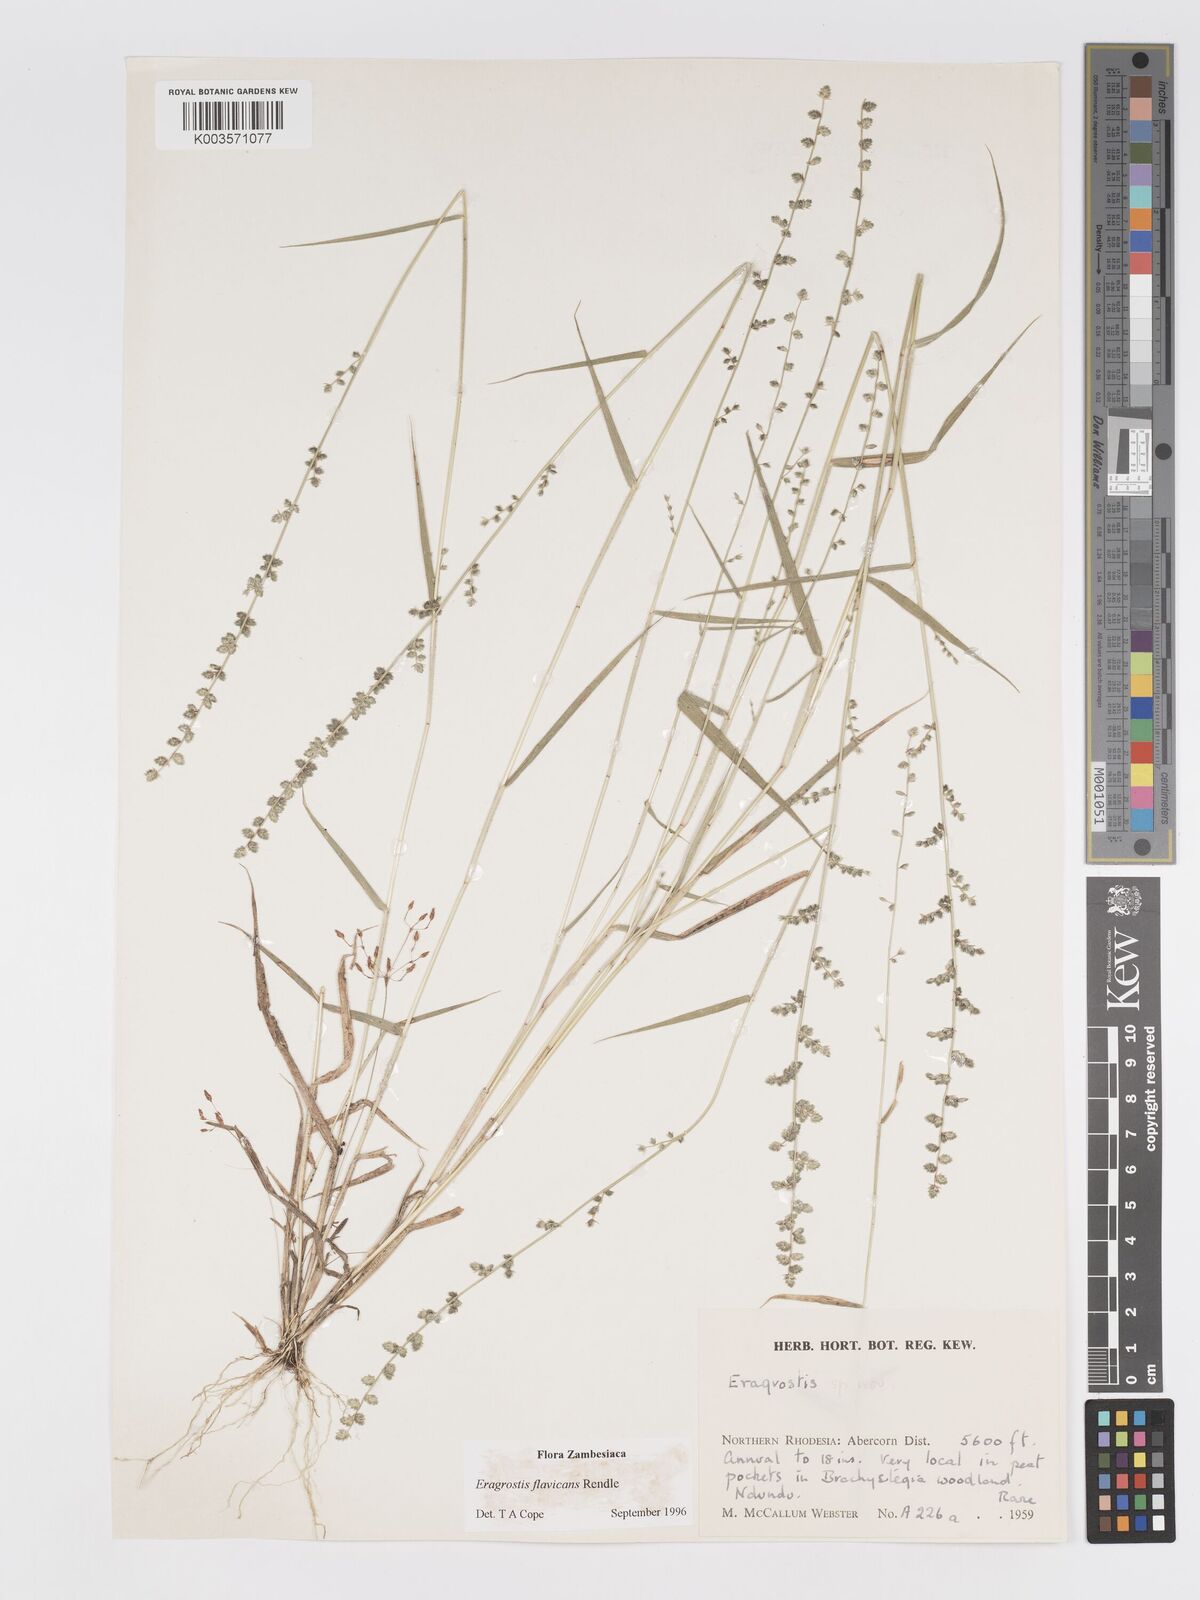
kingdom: Plantae
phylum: Tracheophyta
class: Liliopsida
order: Poales
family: Poaceae
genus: Eragrostis
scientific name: Eragrostis flavicans
